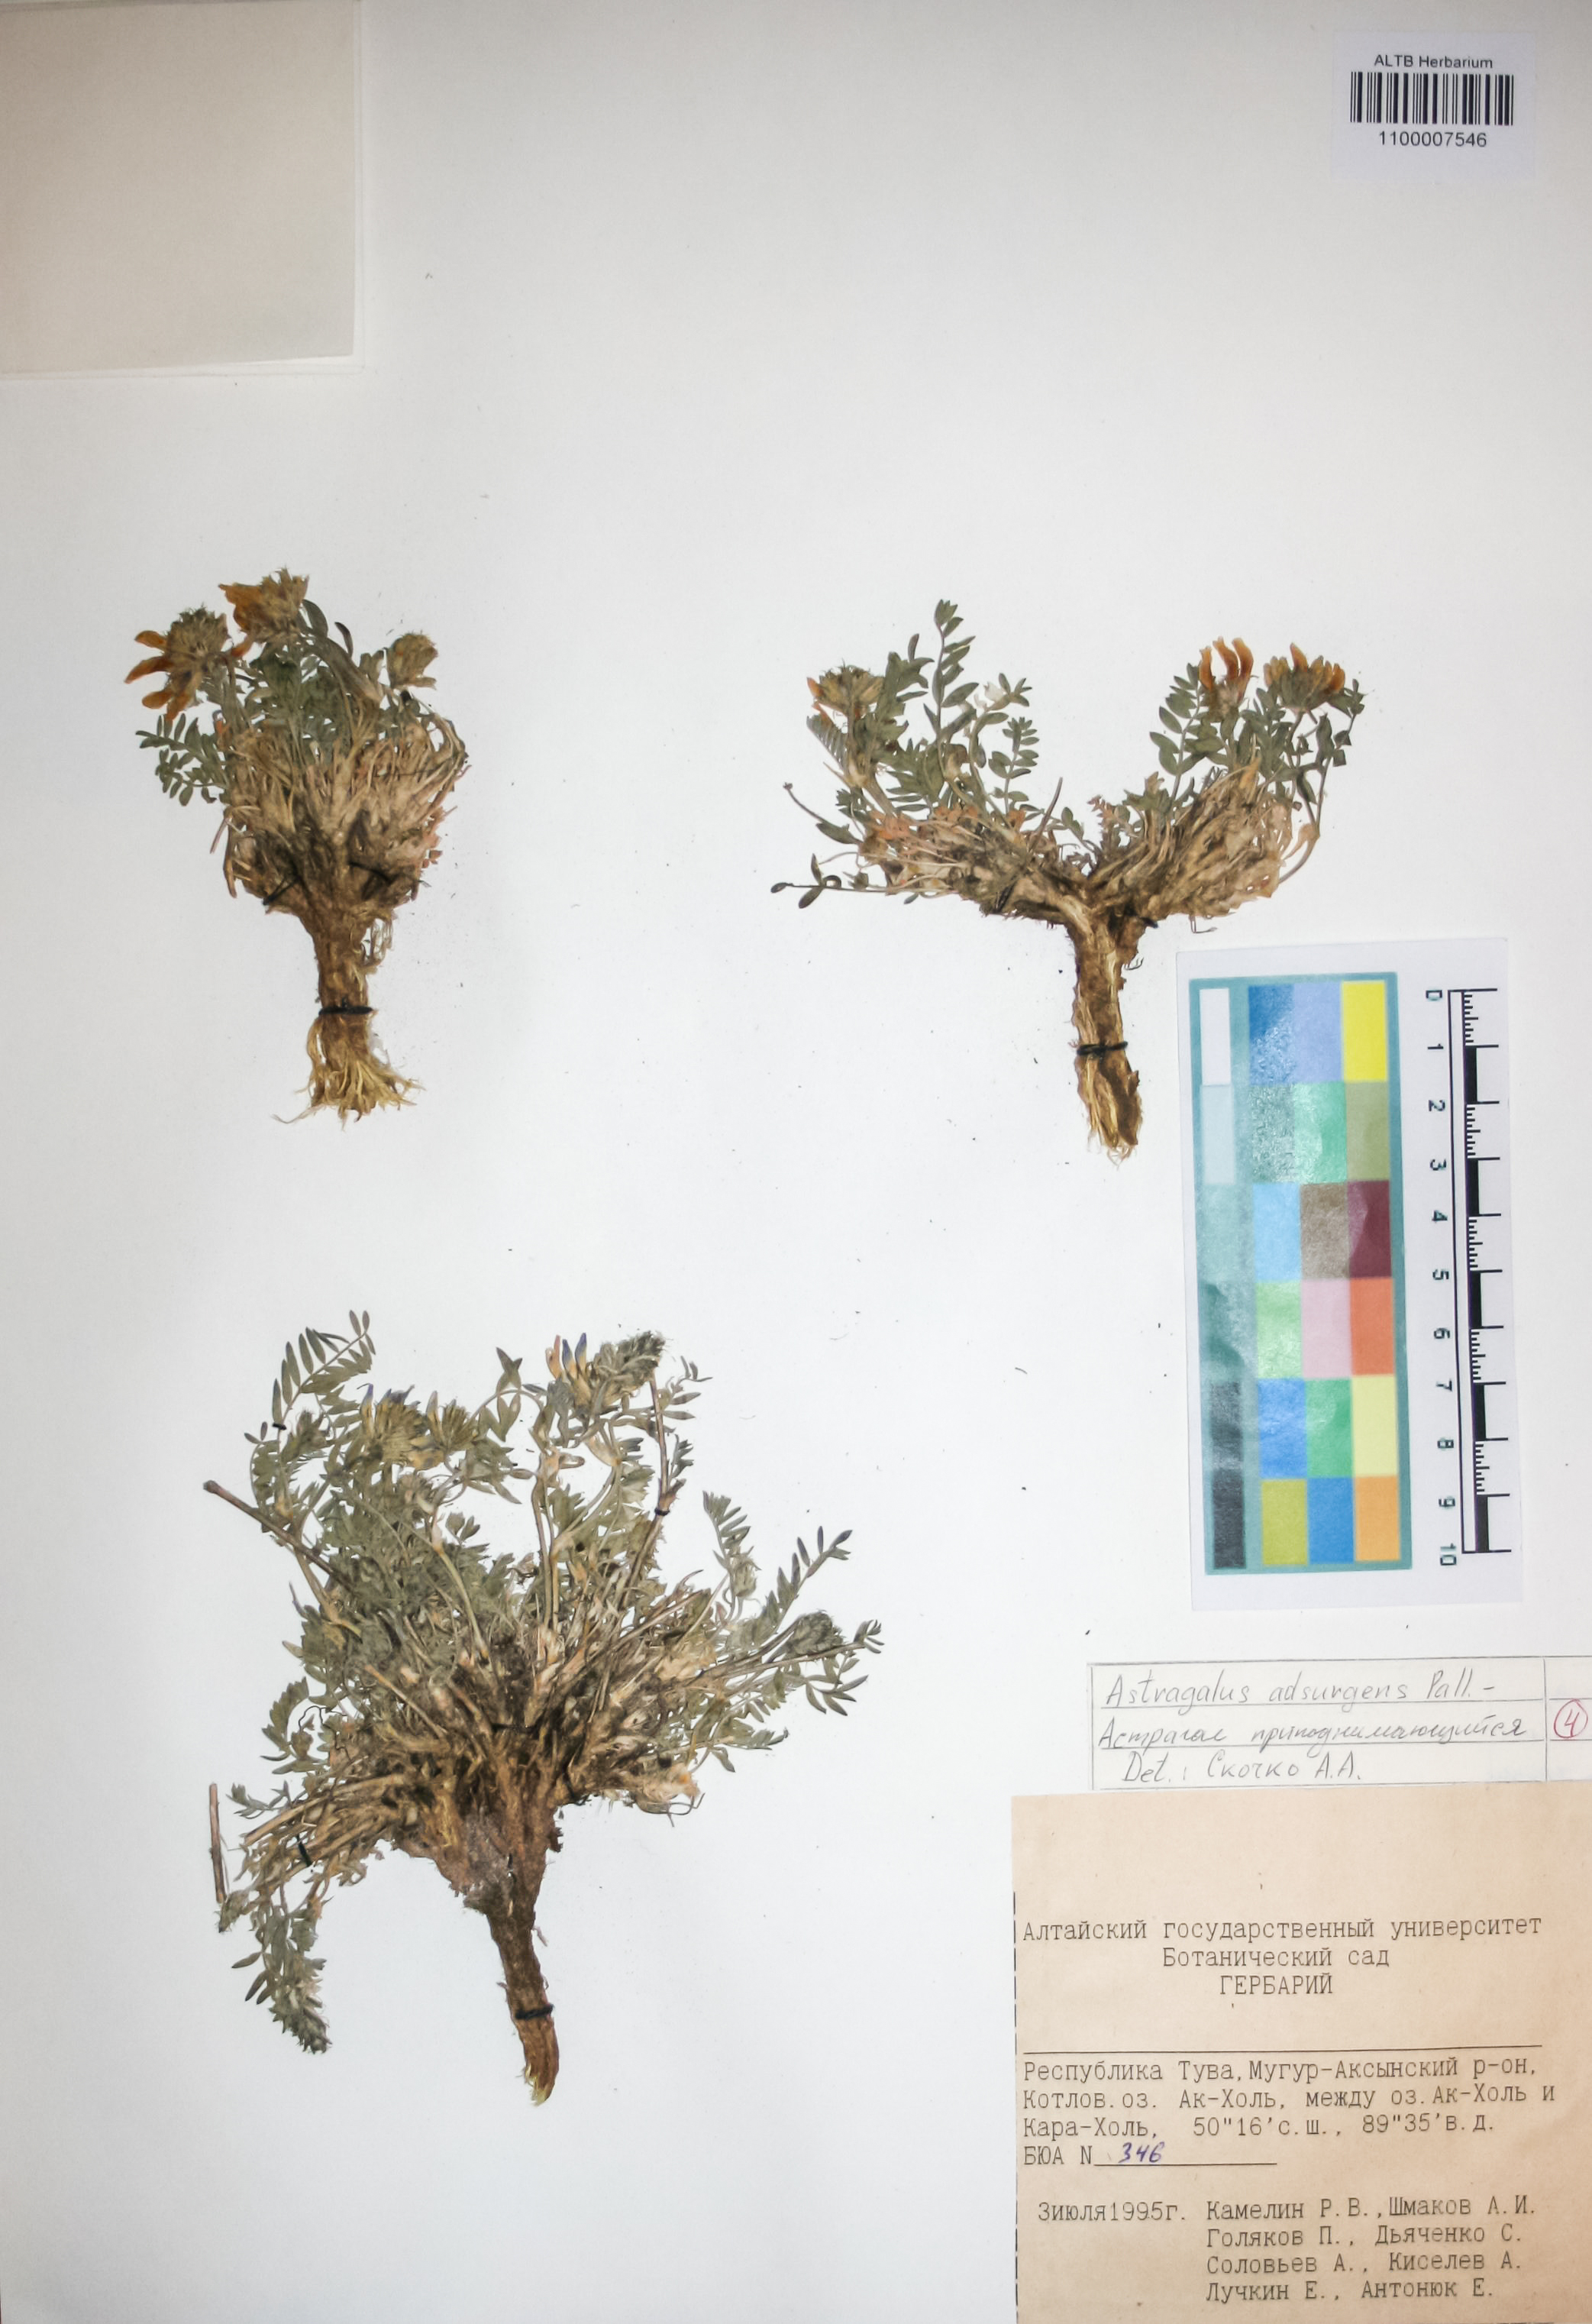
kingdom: Plantae
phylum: Tracheophyta
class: Magnoliopsida
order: Fabales
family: Fabaceae
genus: Astragalus
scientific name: Astragalus laxmannii
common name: Laxmann's milk-vetch
